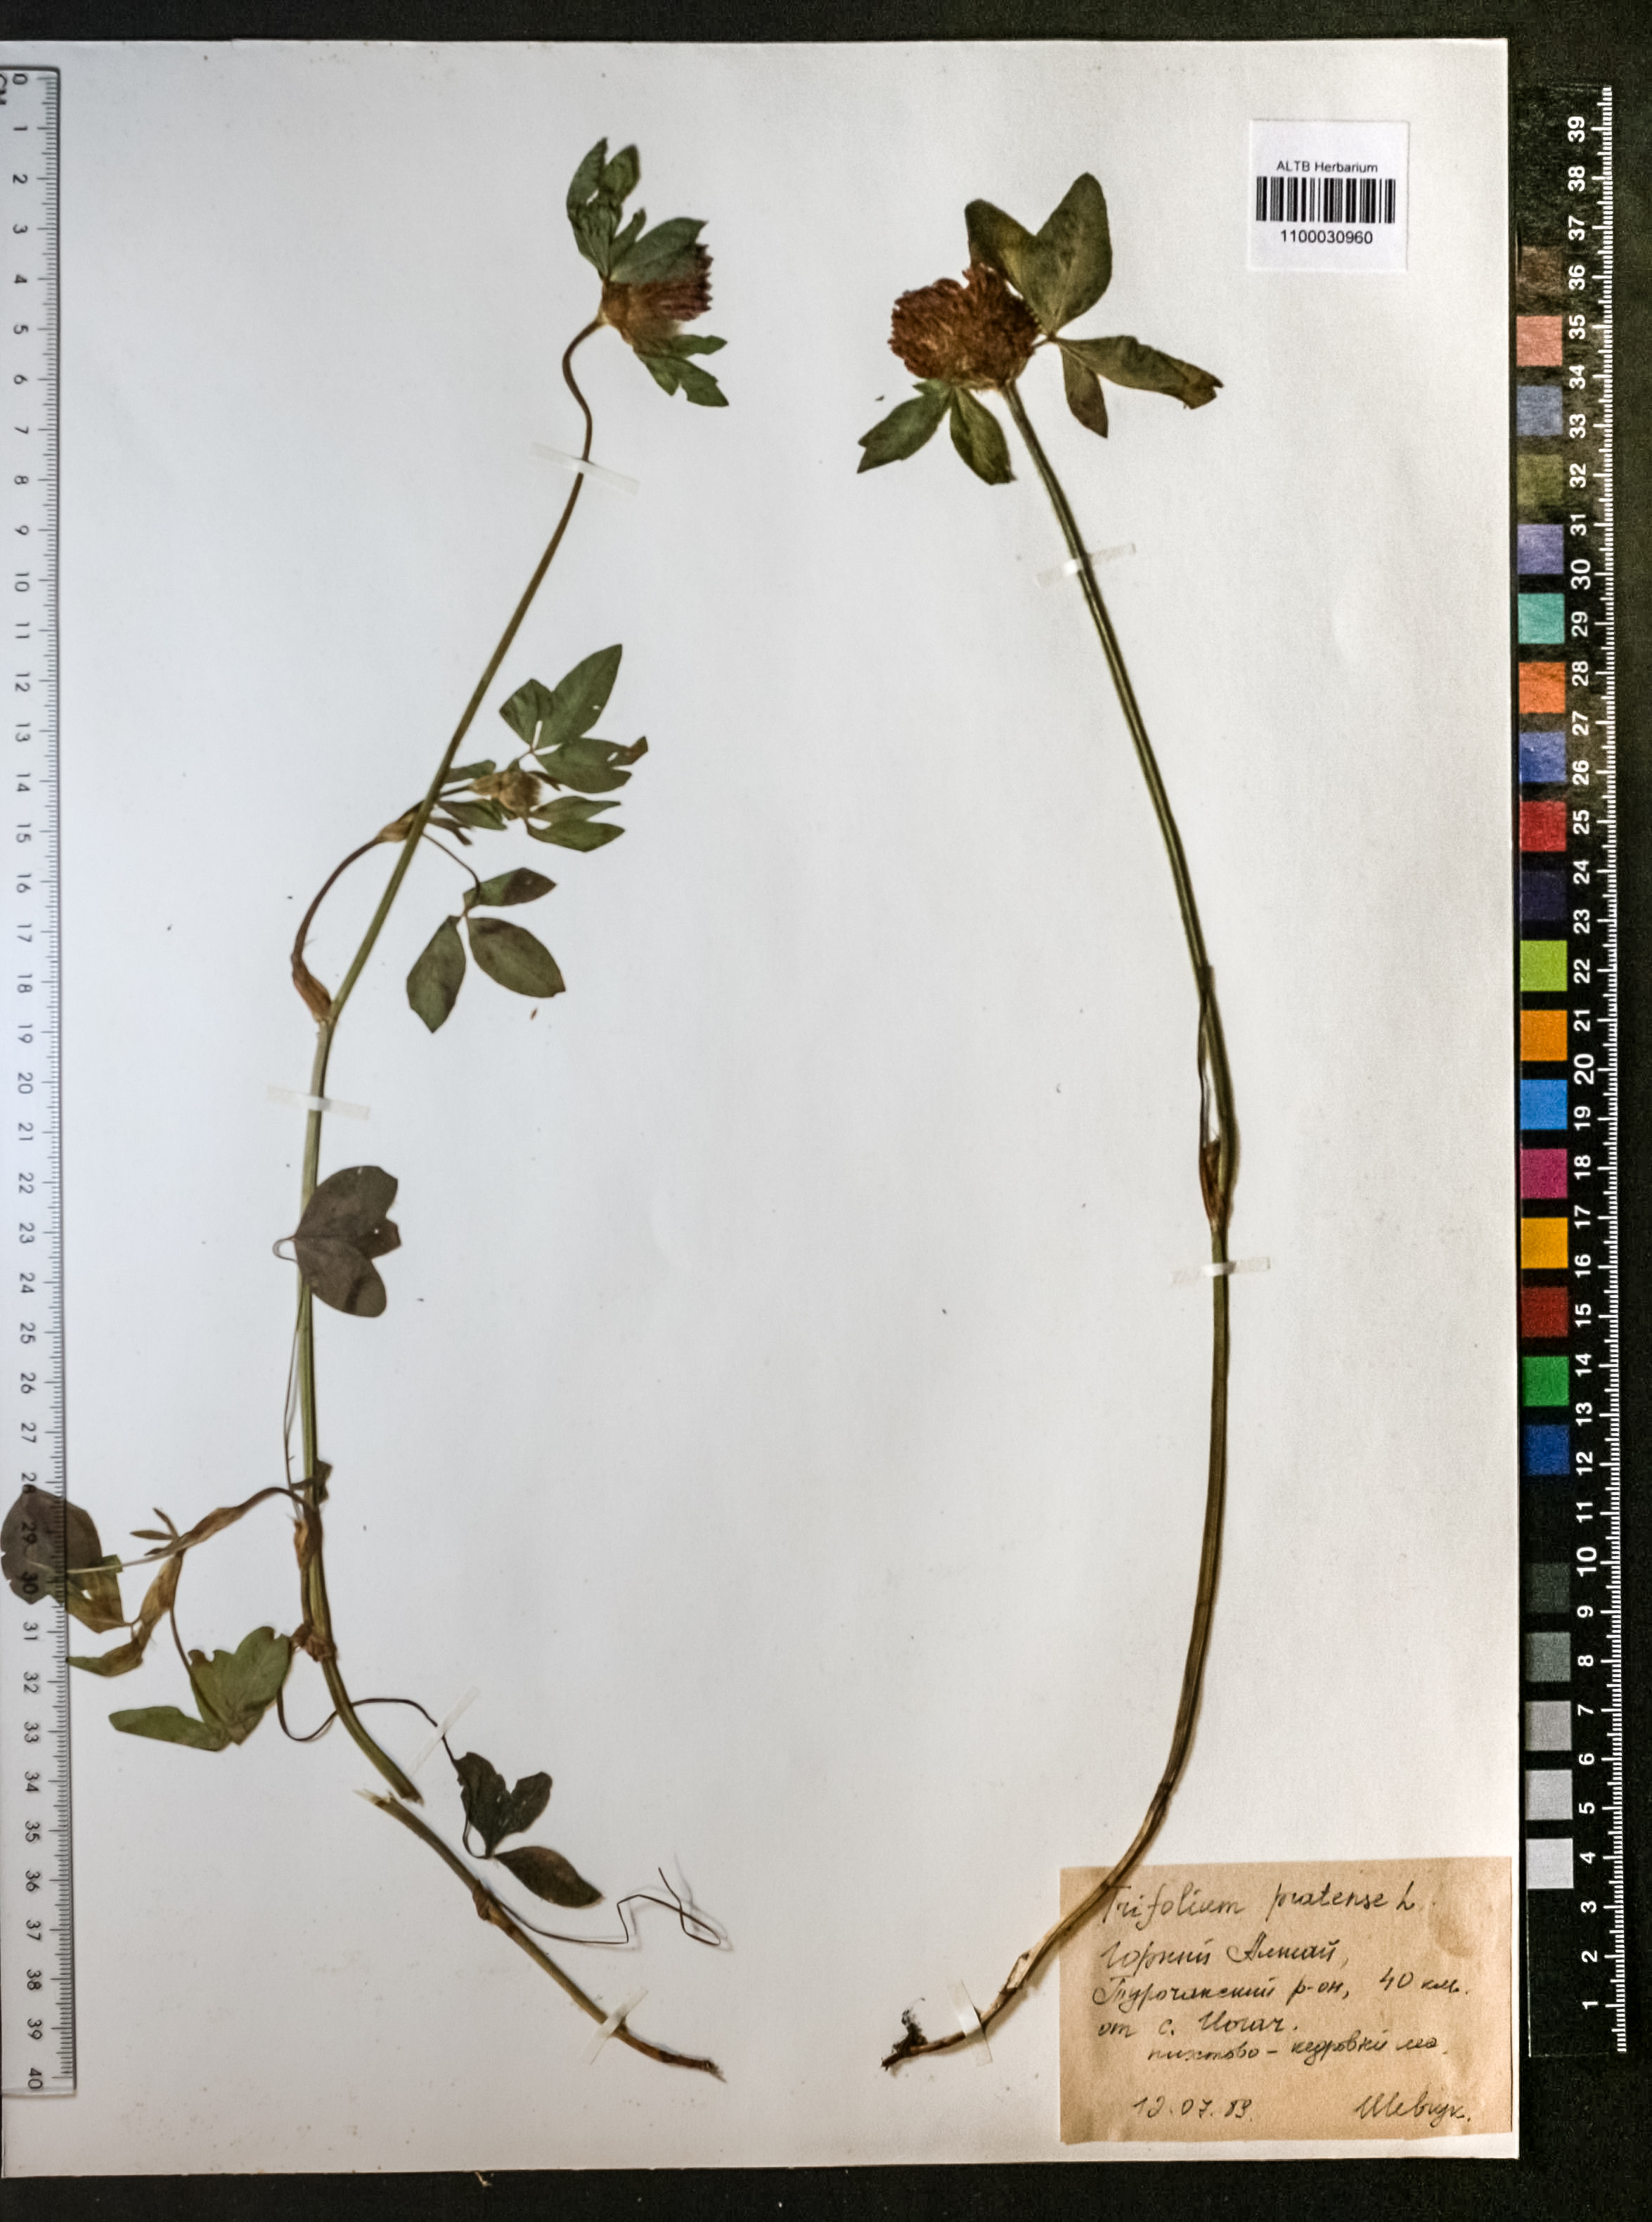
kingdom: Plantae
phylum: Tracheophyta
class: Magnoliopsida
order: Fabales
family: Fabaceae
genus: Trifolium
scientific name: Trifolium pratense
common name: Red clover
